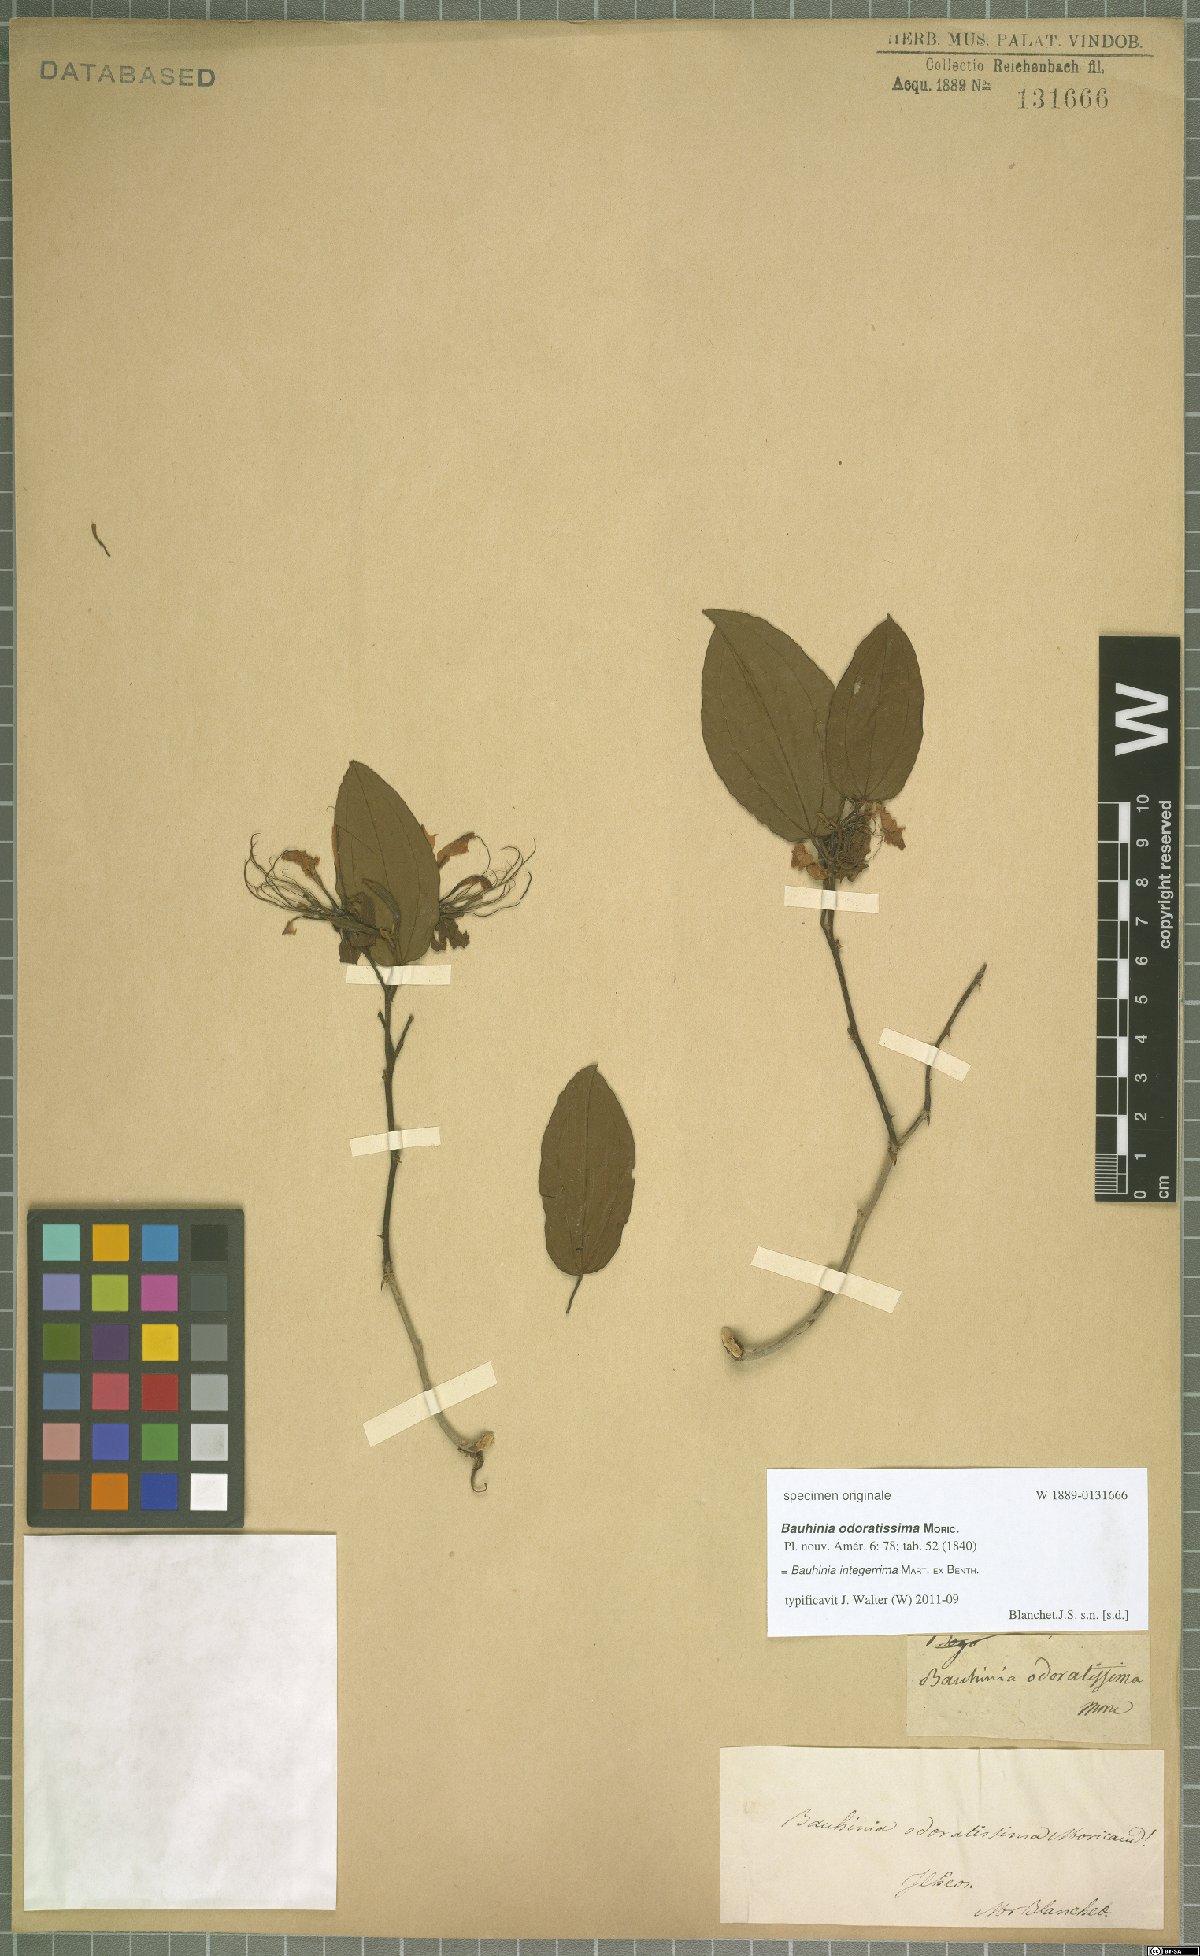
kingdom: Plantae
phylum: Tracheophyta
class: Magnoliopsida
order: Fabales
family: Fabaceae
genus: Bauhinia
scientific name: Bauhinia integerrima
